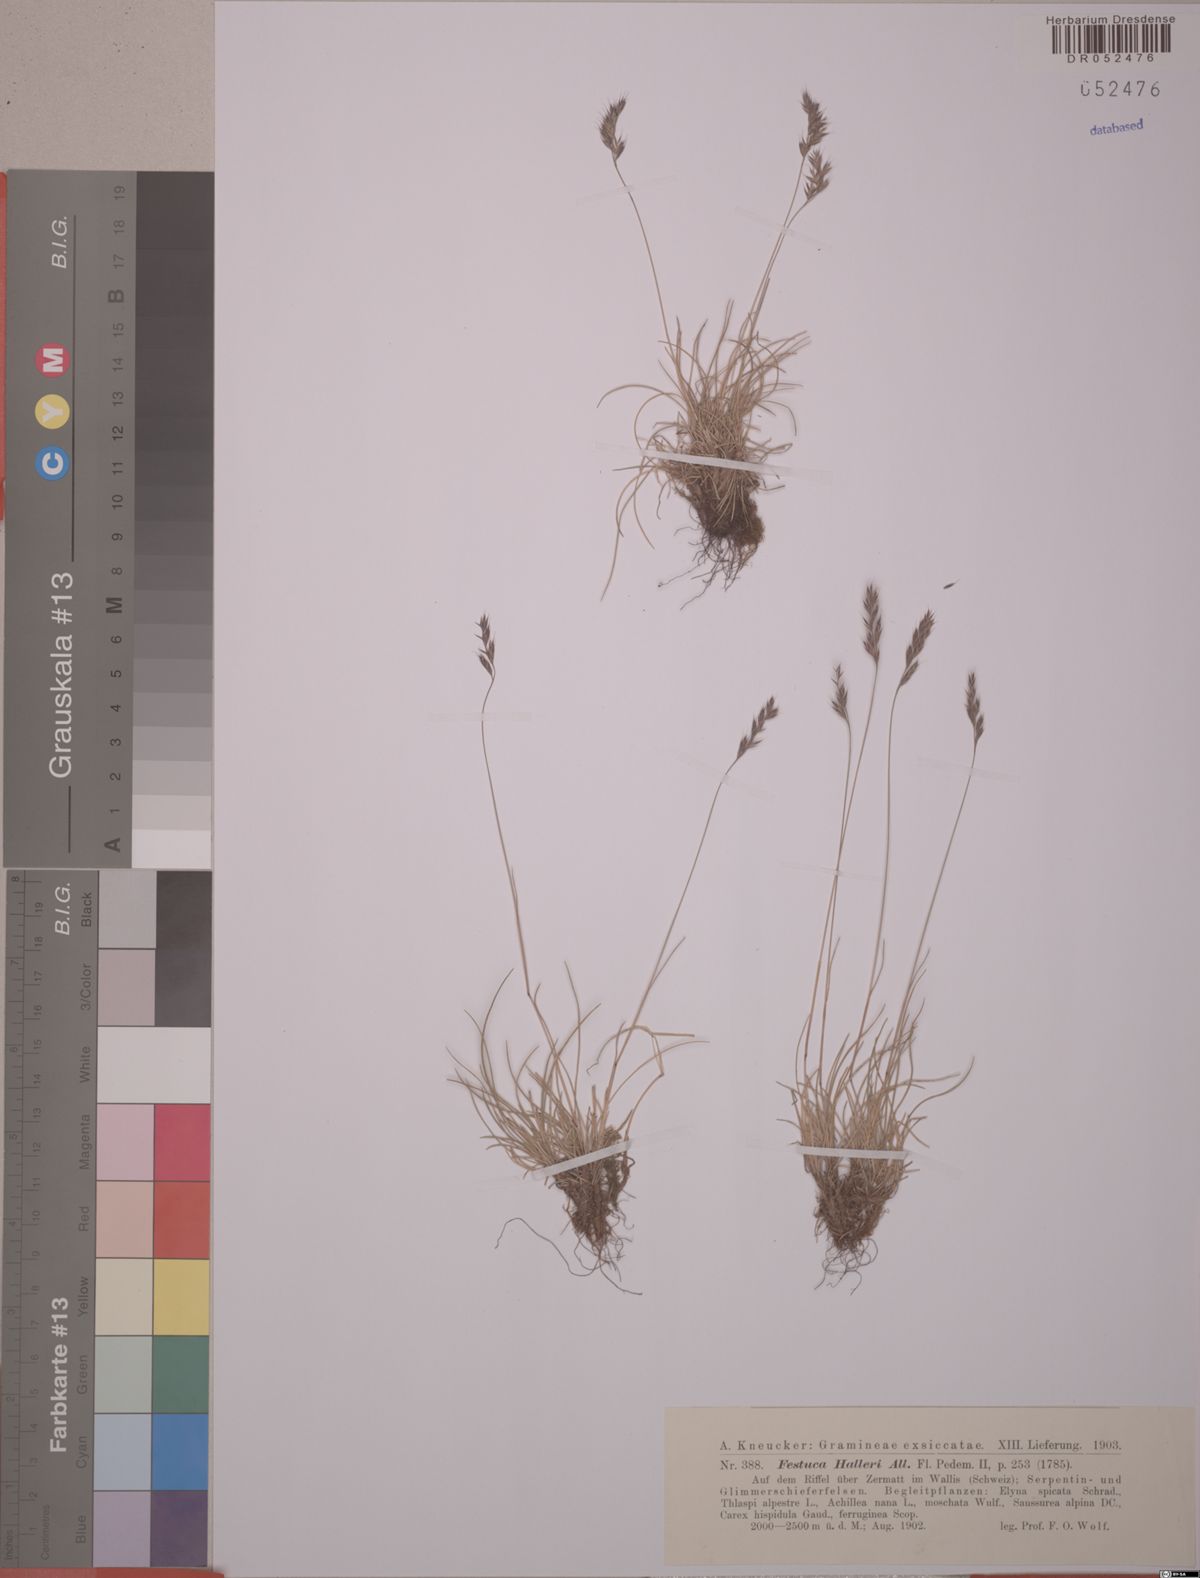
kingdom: Plantae
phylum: Tracheophyta
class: Liliopsida
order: Poales
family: Poaceae
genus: Festuca
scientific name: Festuca halleri
